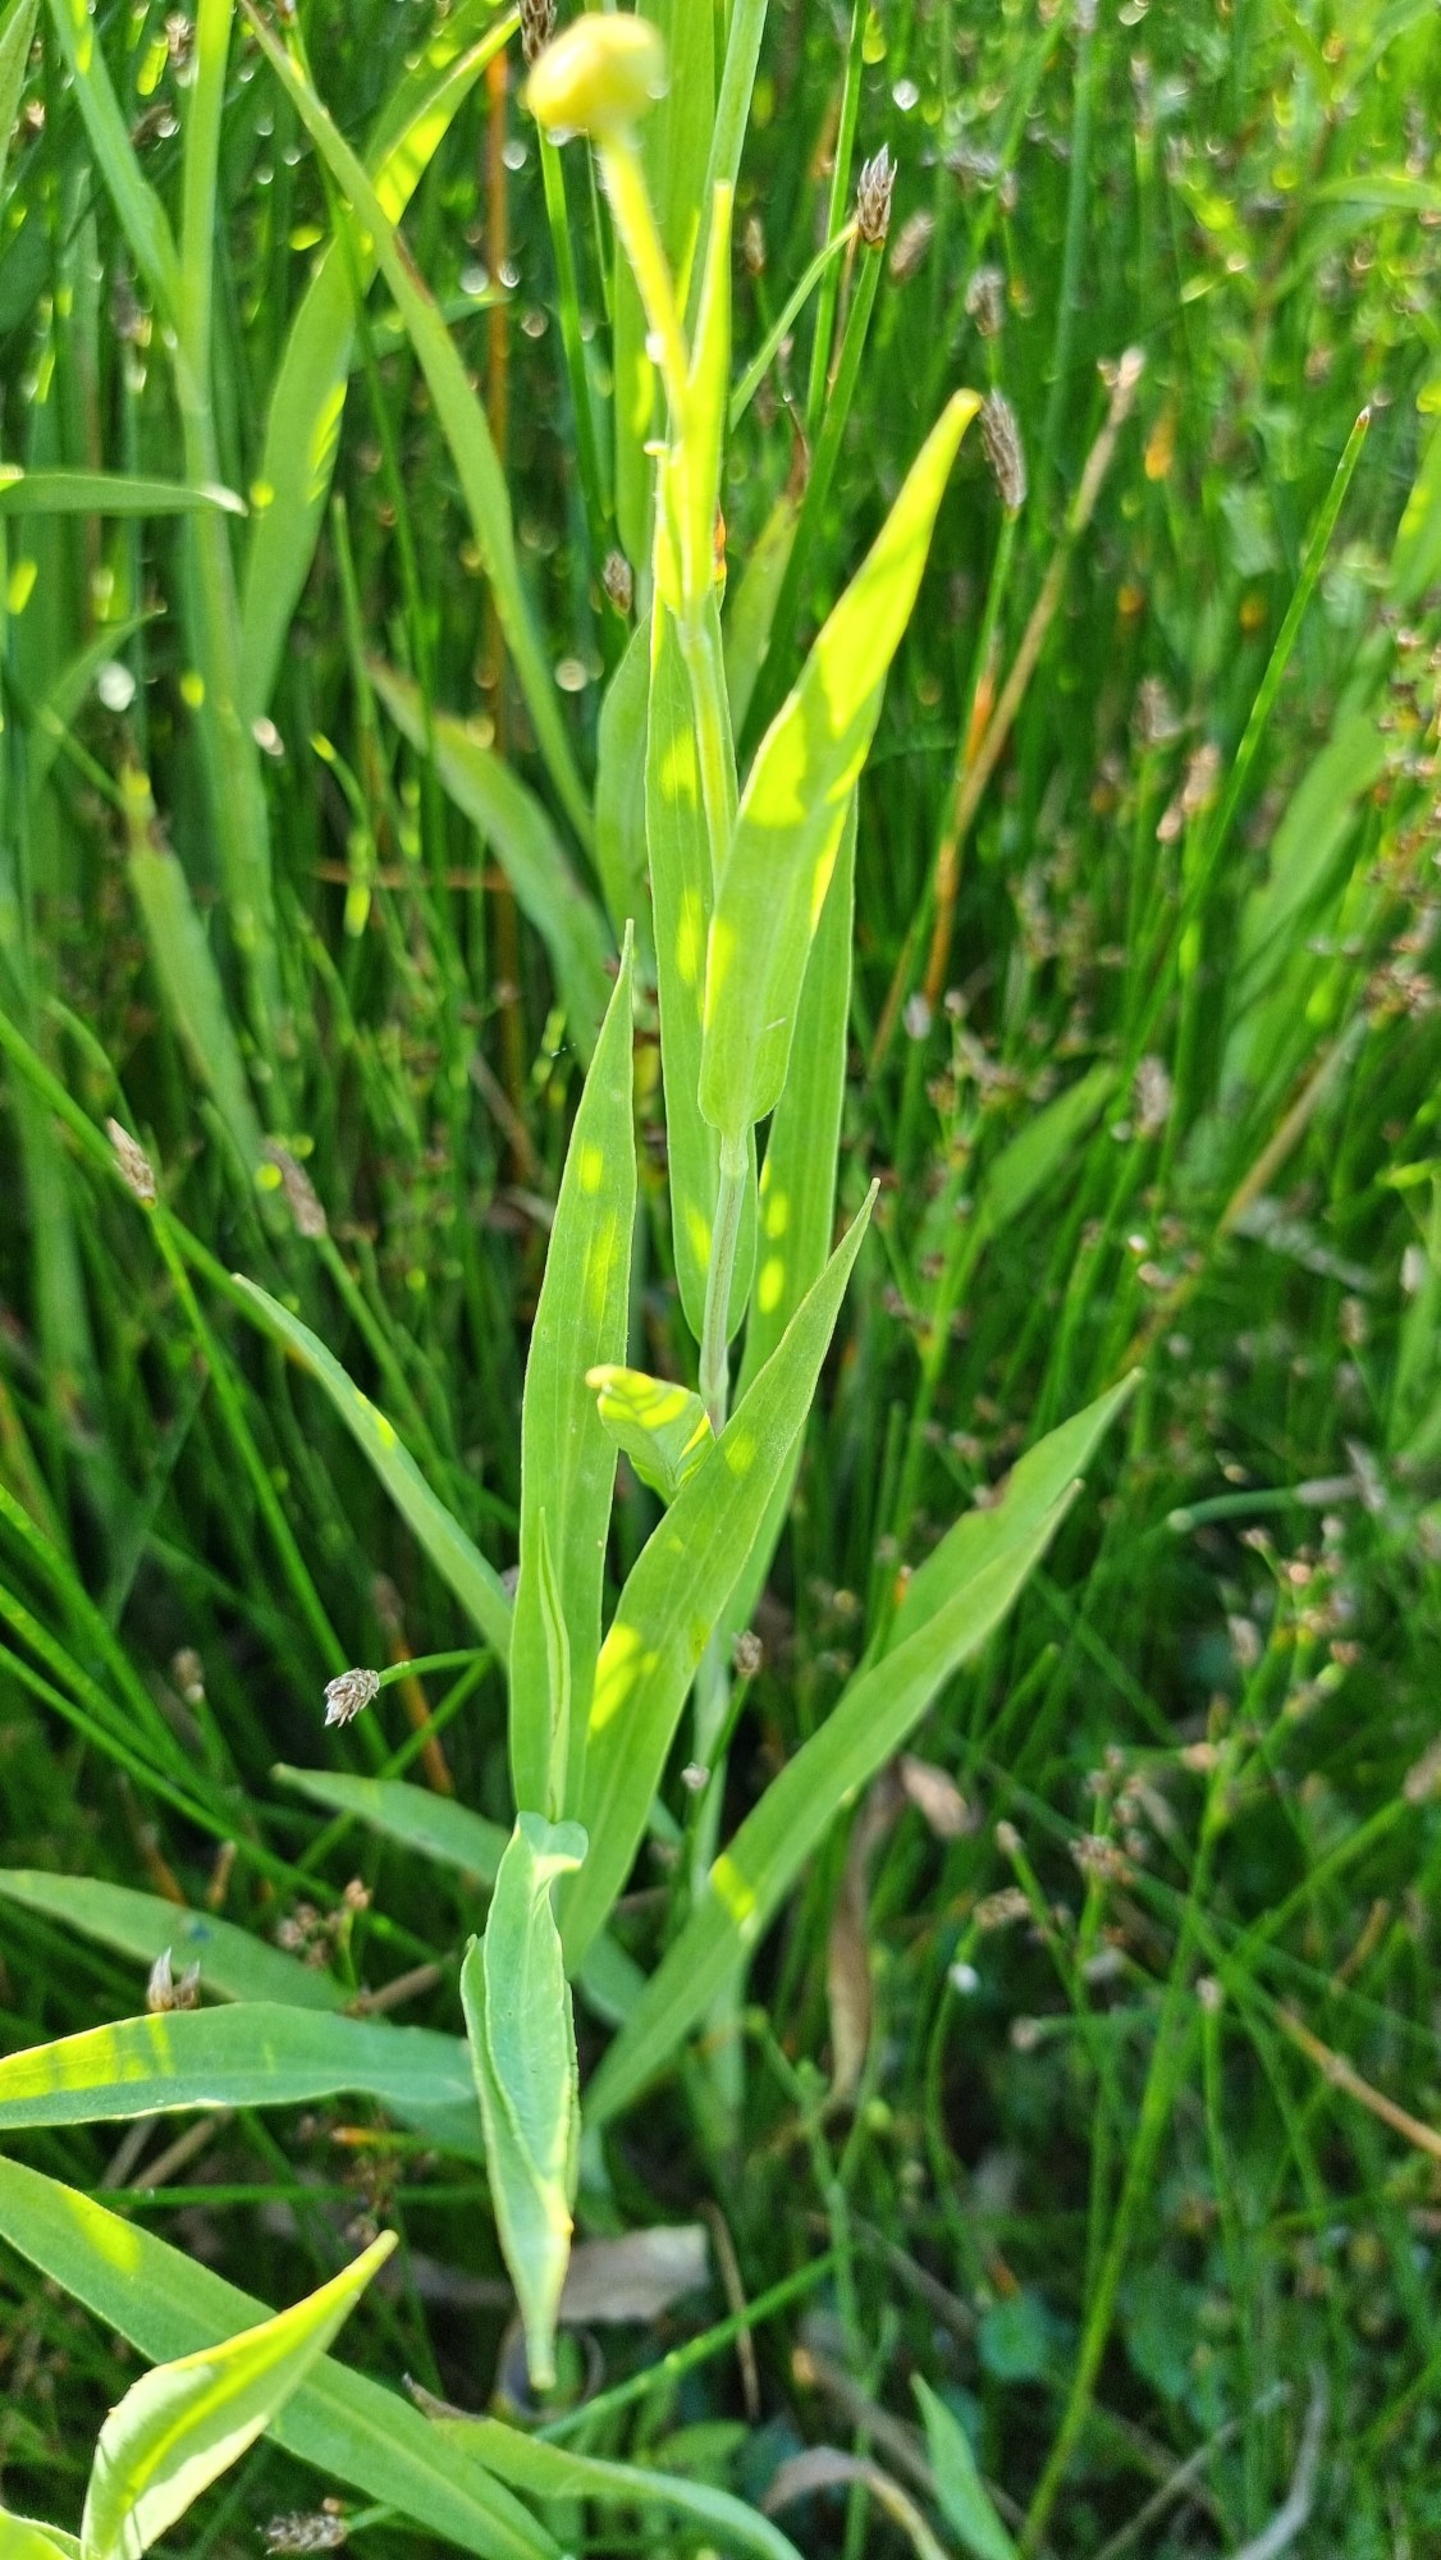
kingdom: Plantae
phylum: Tracheophyta
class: Magnoliopsida
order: Ranunculales
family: Ranunculaceae
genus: Ranunculus
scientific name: Ranunculus lingua
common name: Langbladet ranunkel
